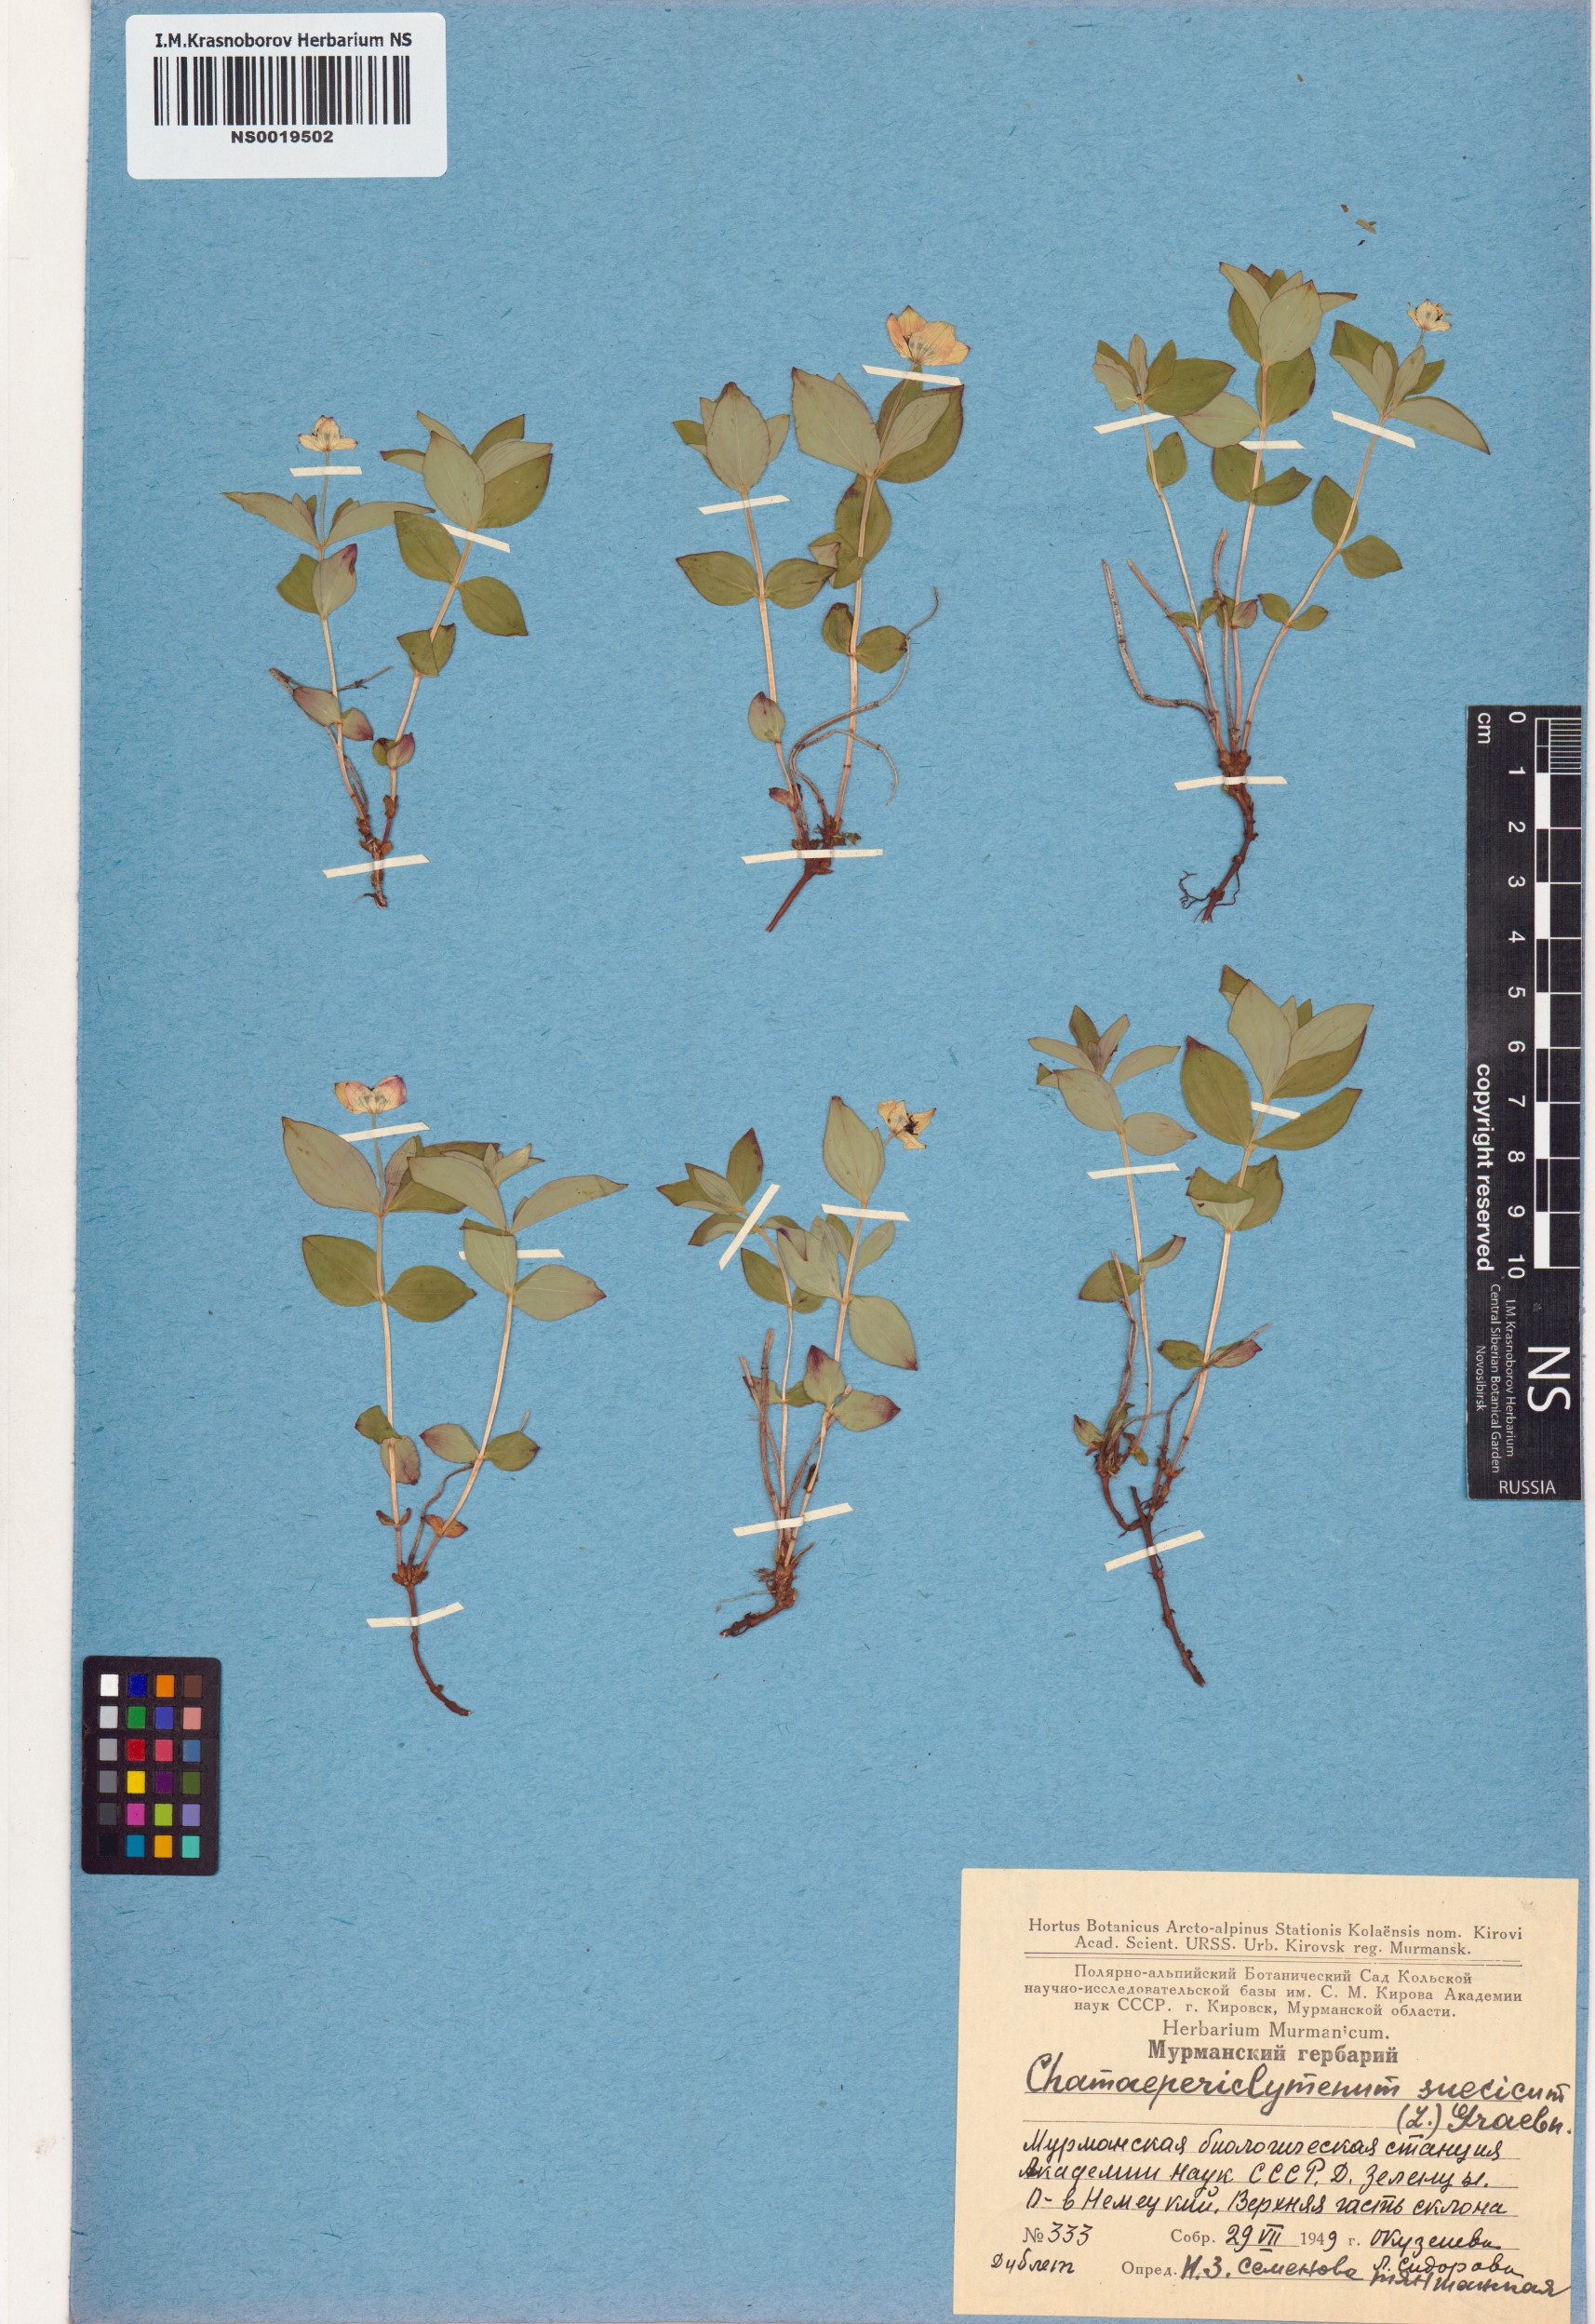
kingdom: Plantae
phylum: Tracheophyta
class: Magnoliopsida
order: Cornales
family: Cornaceae
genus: Cornus
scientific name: Cornus suecica
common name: Dwarf cornel
